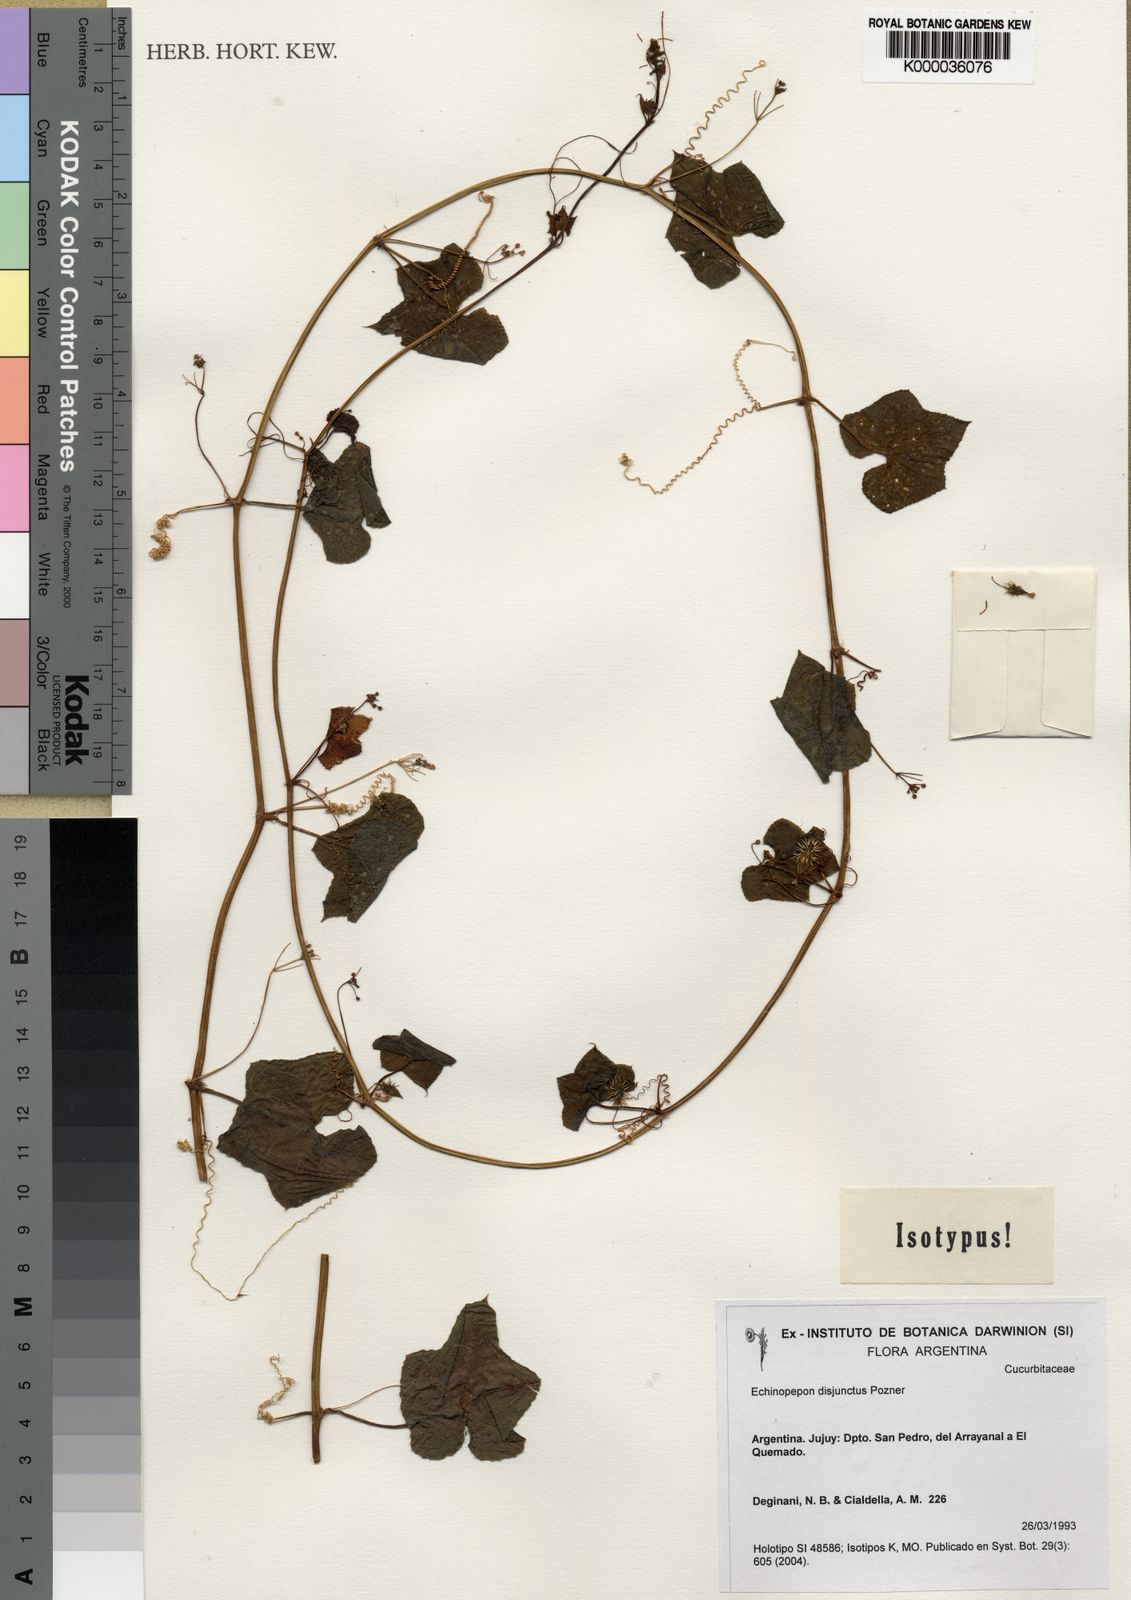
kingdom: Plantae
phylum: Tracheophyta
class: Magnoliopsida
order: Cucurbitales
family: Cucurbitaceae
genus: Echinopepon
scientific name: Echinopepon disjunctus
